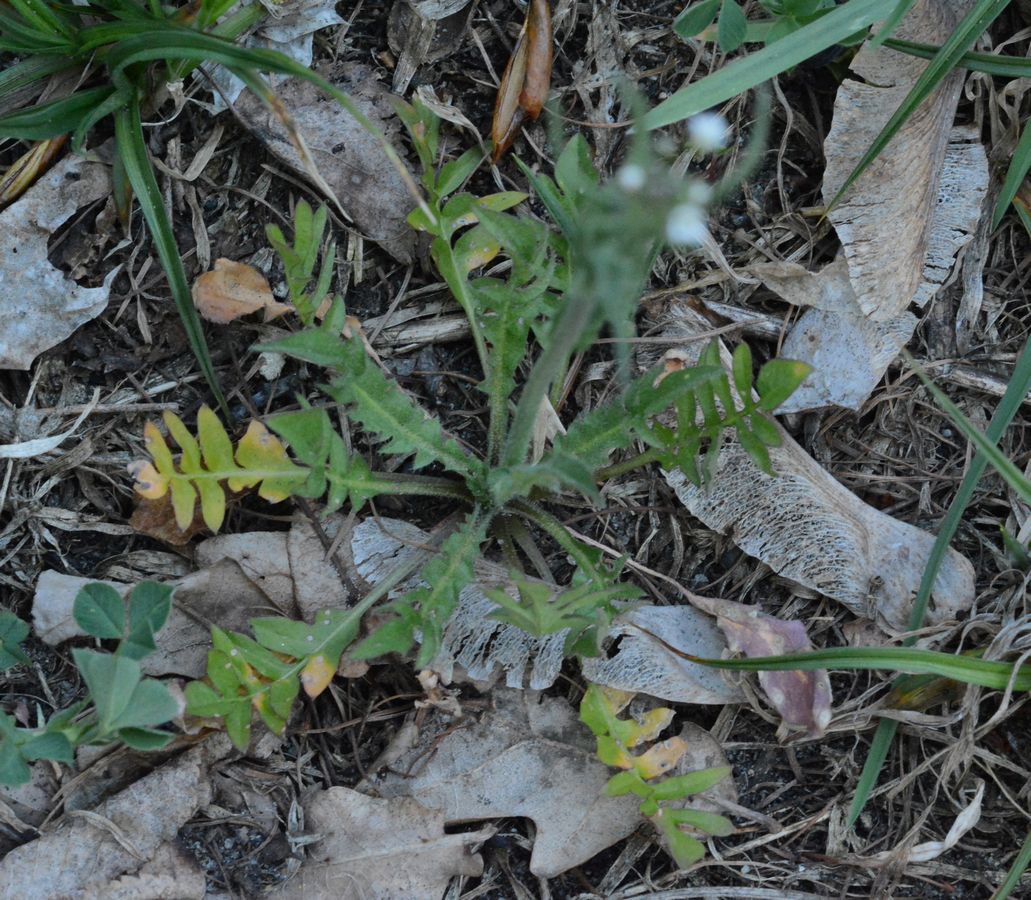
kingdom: Plantae
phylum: Tracheophyta
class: Magnoliopsida
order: Brassicales
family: Brassicaceae
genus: Capsella
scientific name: Capsella bursa-pastoris
